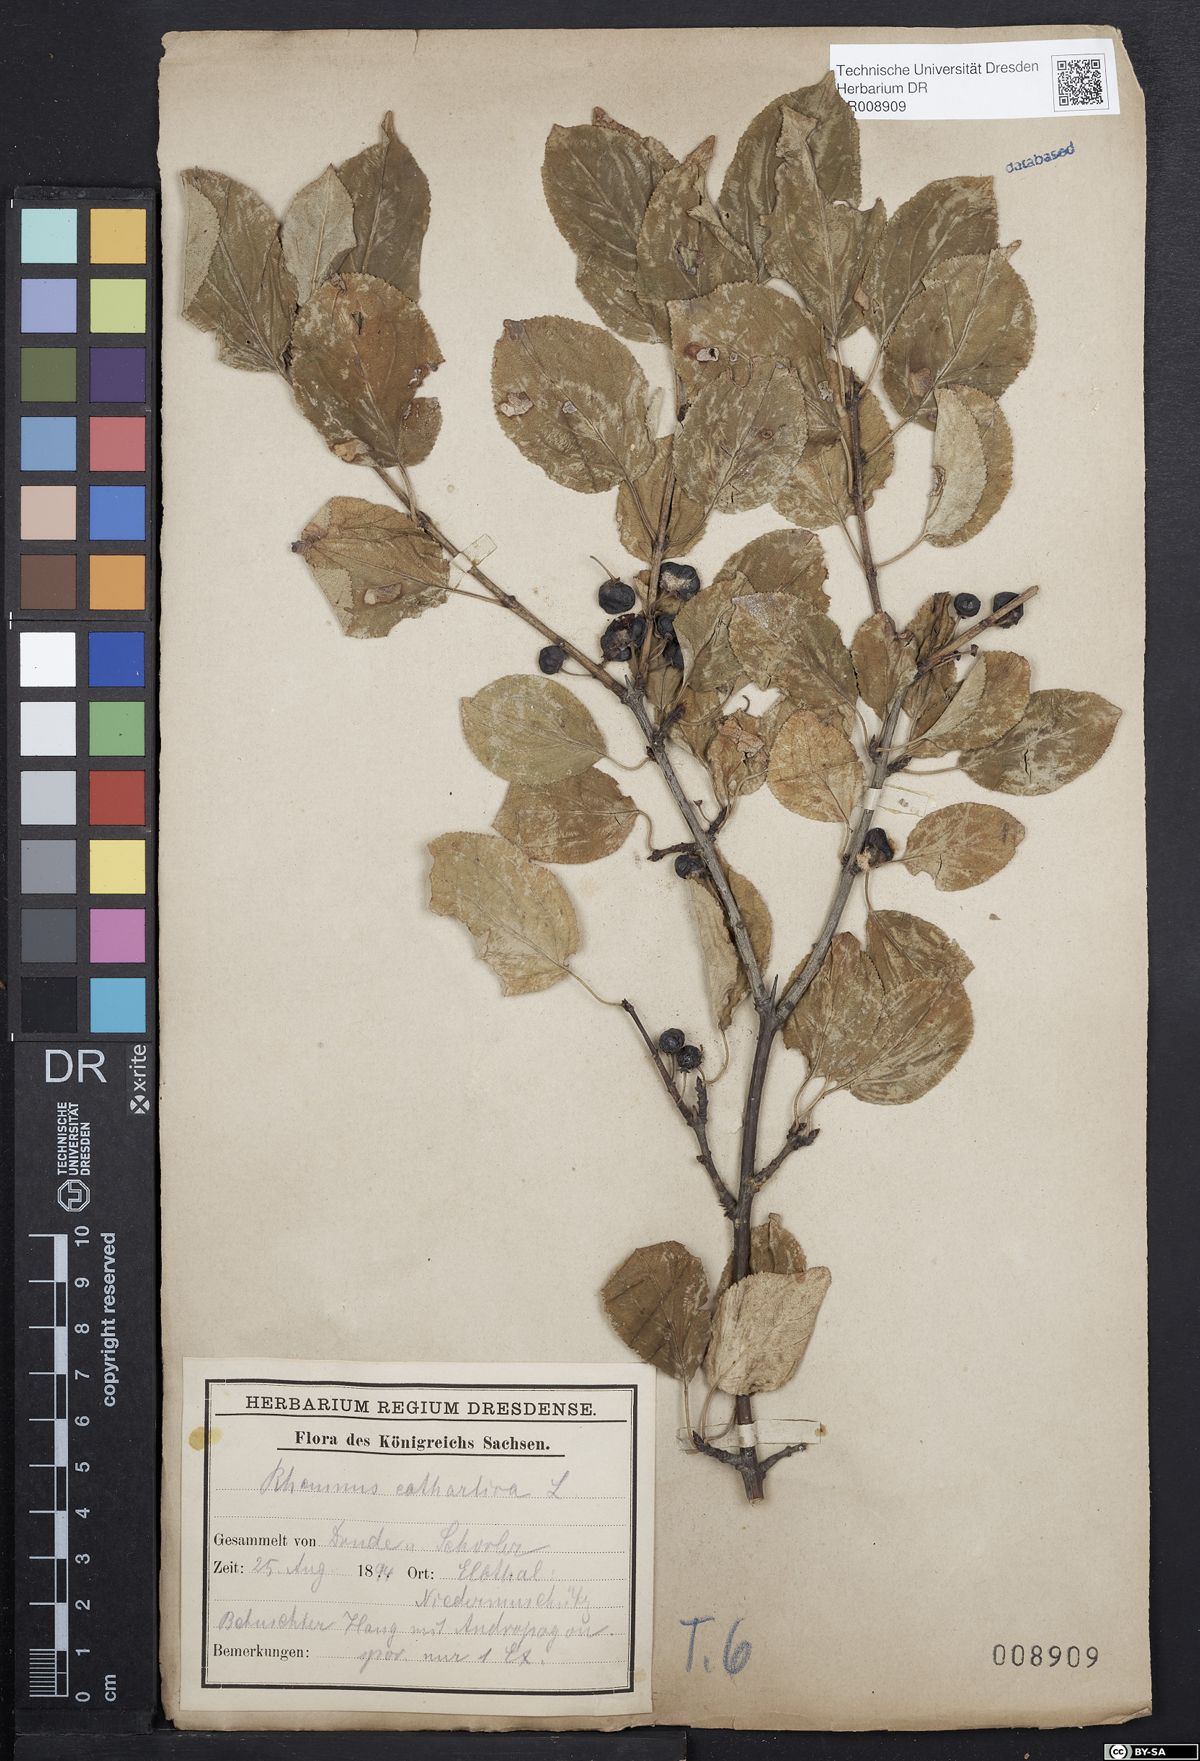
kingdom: Plantae
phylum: Tracheophyta
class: Magnoliopsida
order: Rosales
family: Rhamnaceae
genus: Rhamnus
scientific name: Rhamnus cathartica
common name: Common buckthorn
